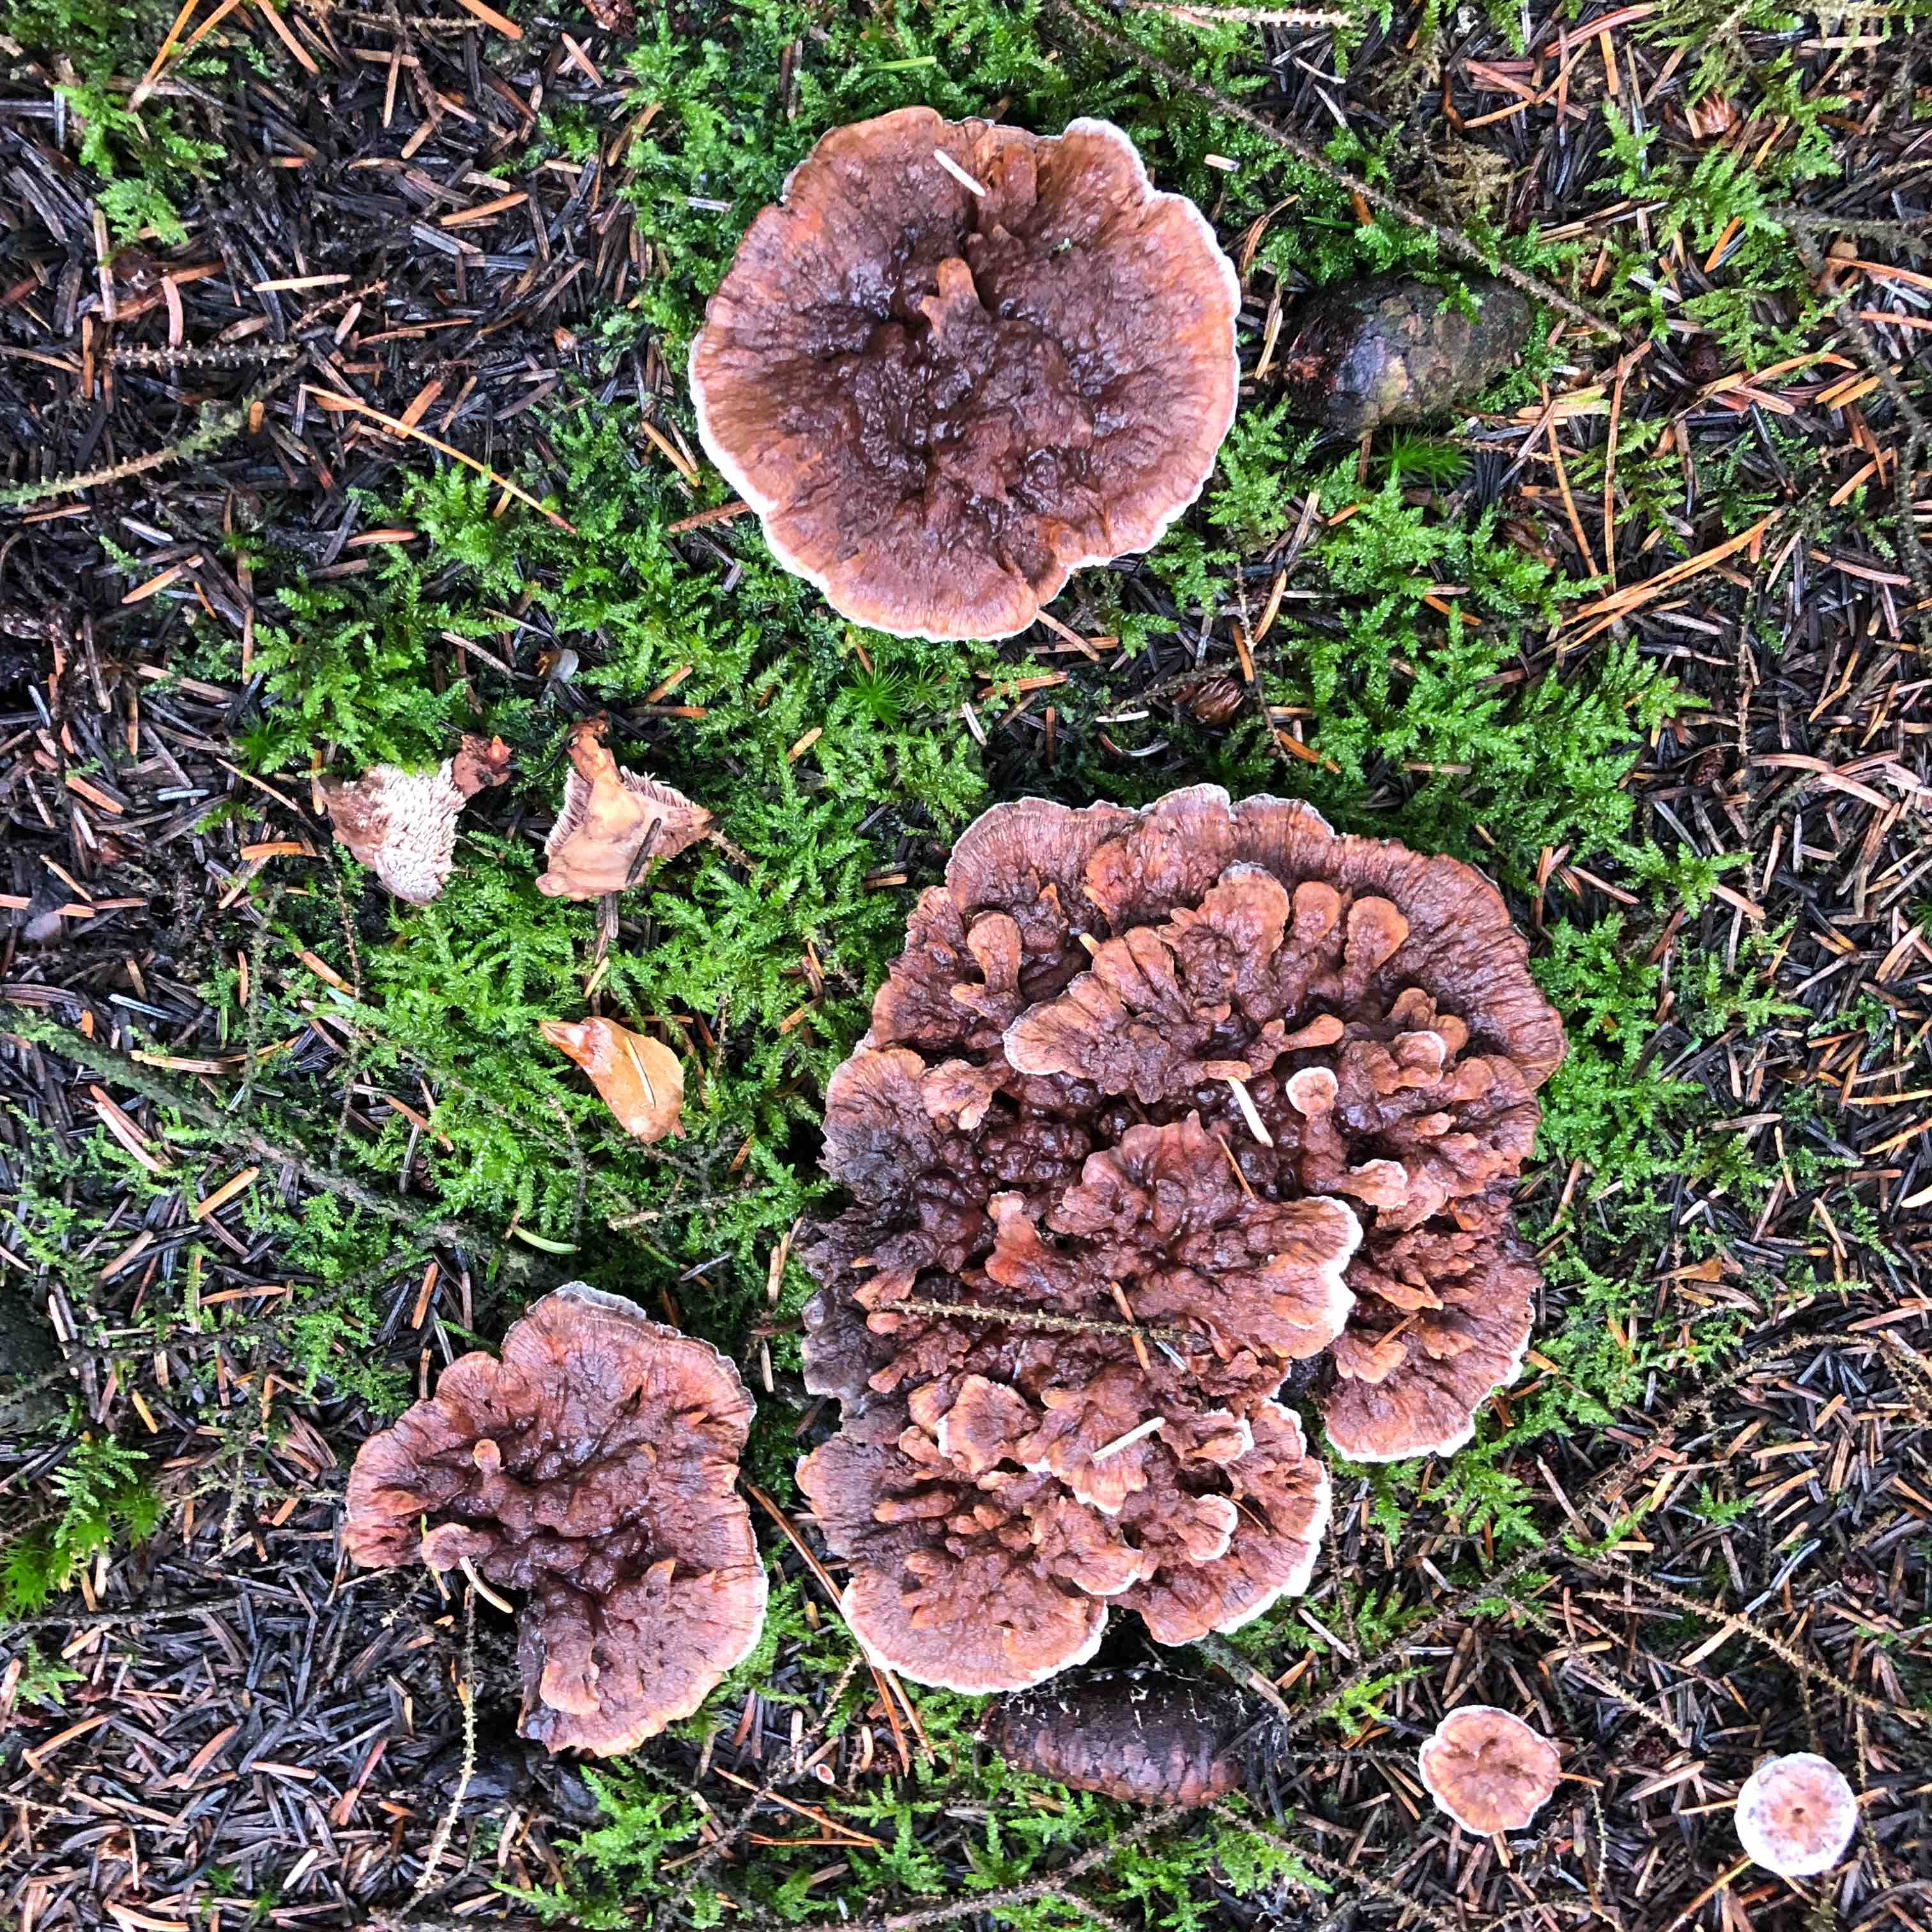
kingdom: Fungi
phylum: Basidiomycota
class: Agaricomycetes
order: Thelephorales
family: Bankeraceae
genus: Hydnellum
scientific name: Hydnellum aurantiacum
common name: orange korkpigsvamp
